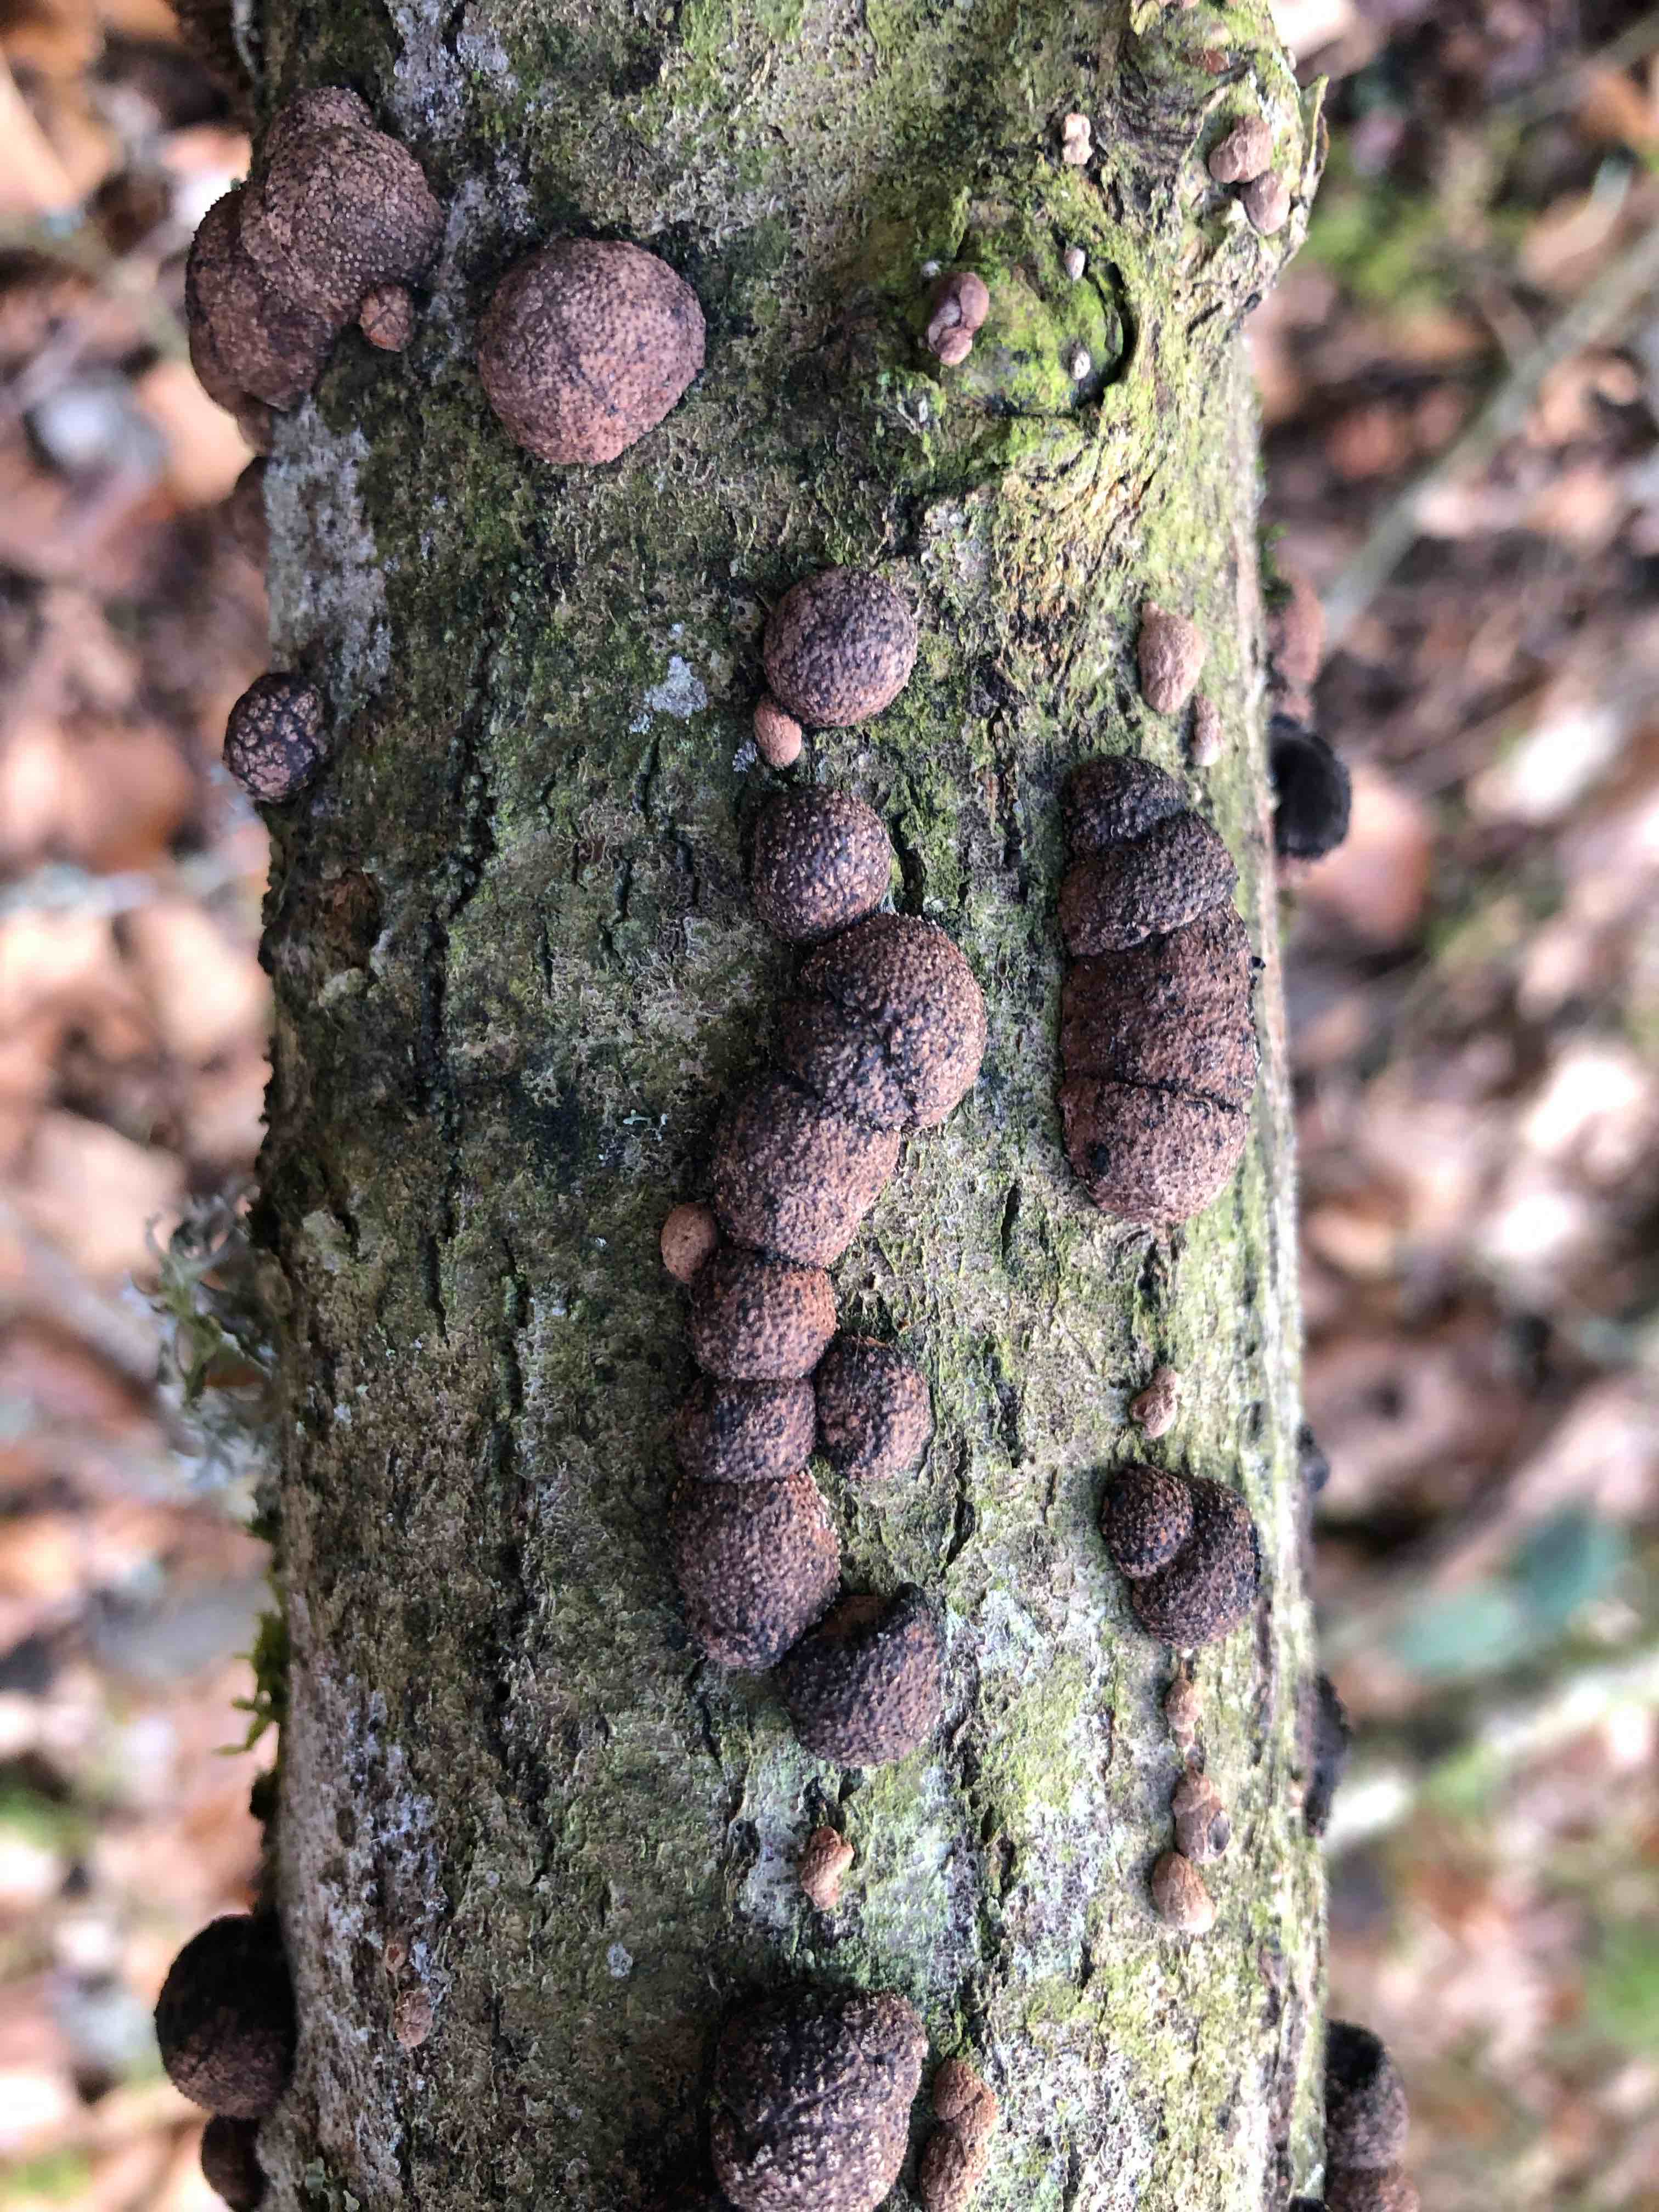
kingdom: Fungi
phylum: Ascomycota
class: Sordariomycetes
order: Xylariales
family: Hypoxylaceae
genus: Hypoxylon
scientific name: Hypoxylon fragiforme
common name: kuljordbær
